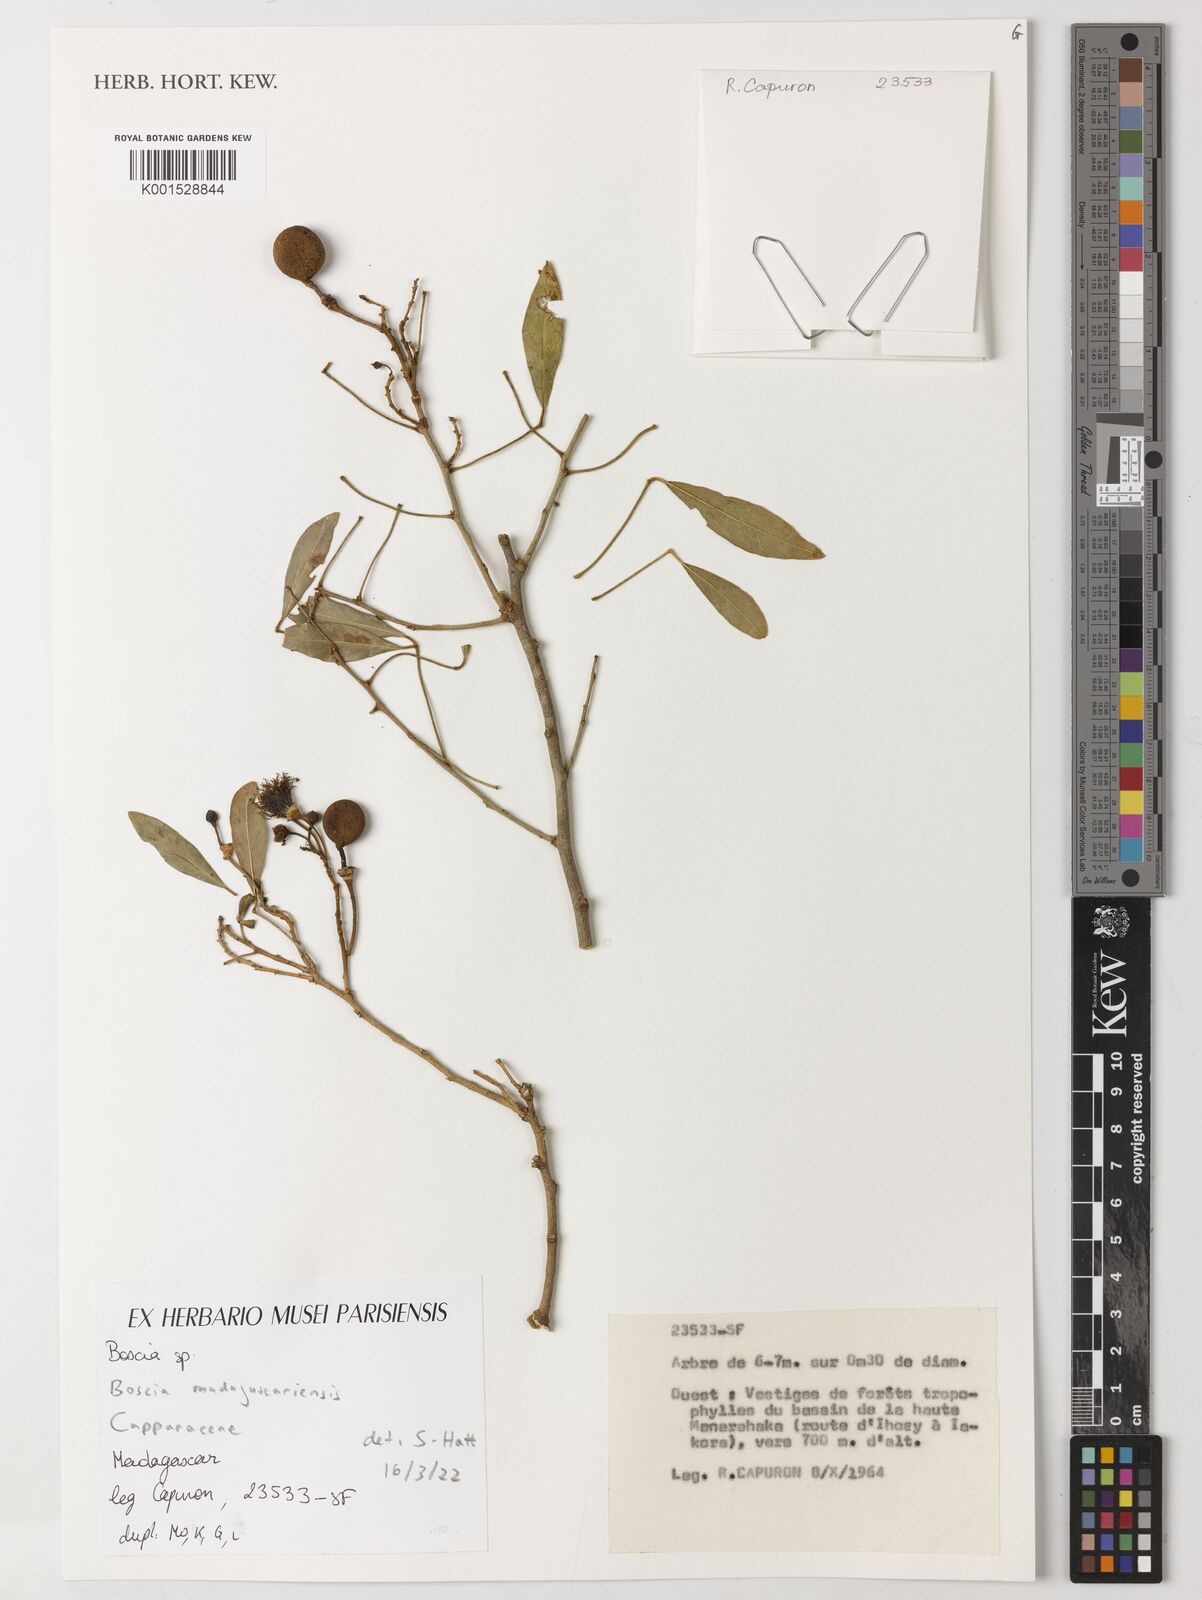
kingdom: Plantae
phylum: Tracheophyta
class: Magnoliopsida
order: Brassicales
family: Capparaceae
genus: Boscia
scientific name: Boscia madagascariensis
